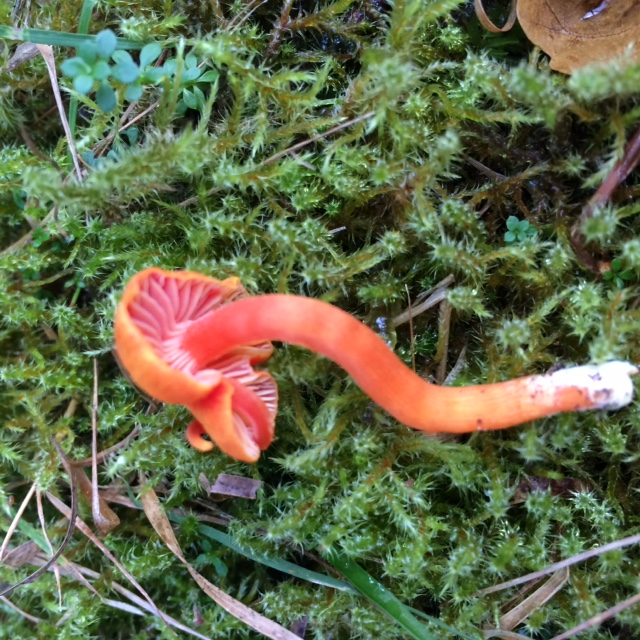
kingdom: Fungi
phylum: Basidiomycota
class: Agaricomycetes
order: Agaricales
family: Hygrophoraceae
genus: Hygrocybe
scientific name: Hygrocybe
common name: vokshat
